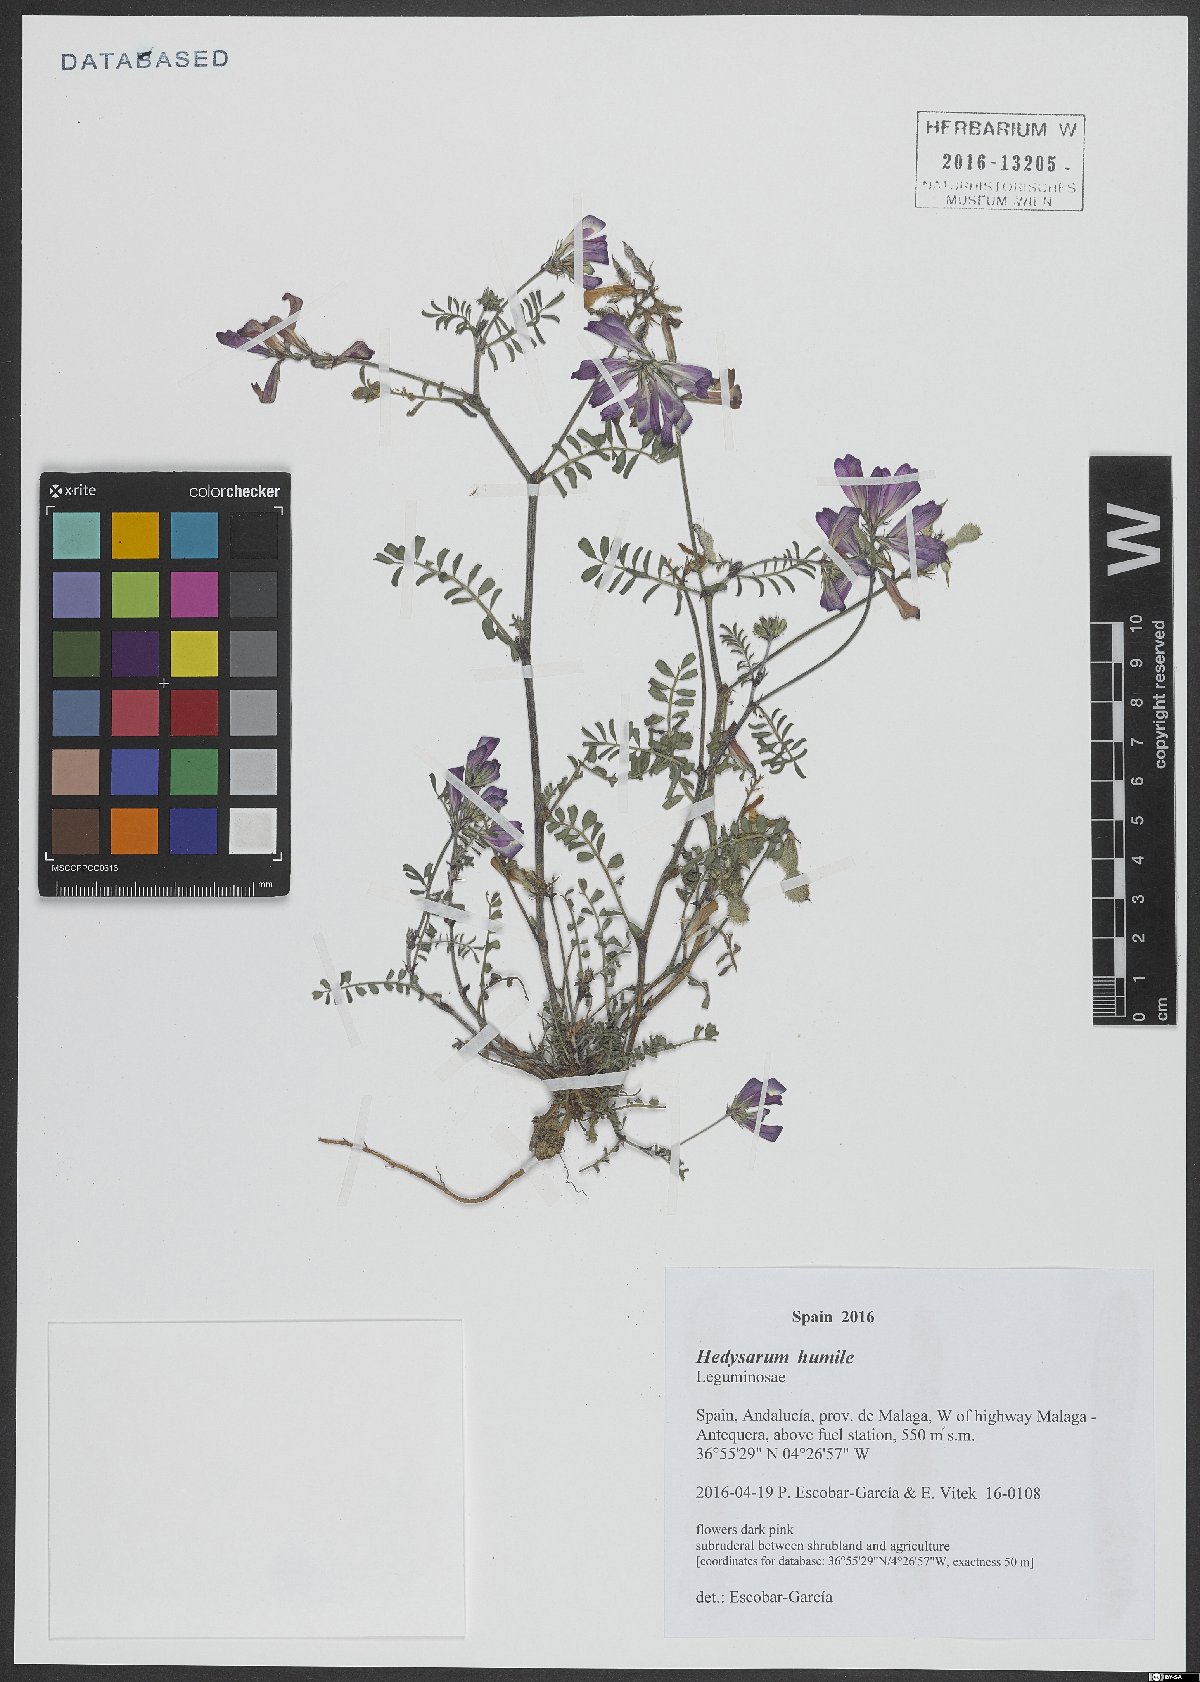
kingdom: Plantae
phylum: Tracheophyta
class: Magnoliopsida
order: Fabales
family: Fabaceae
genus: Hedysarum
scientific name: Hedysarum humile
